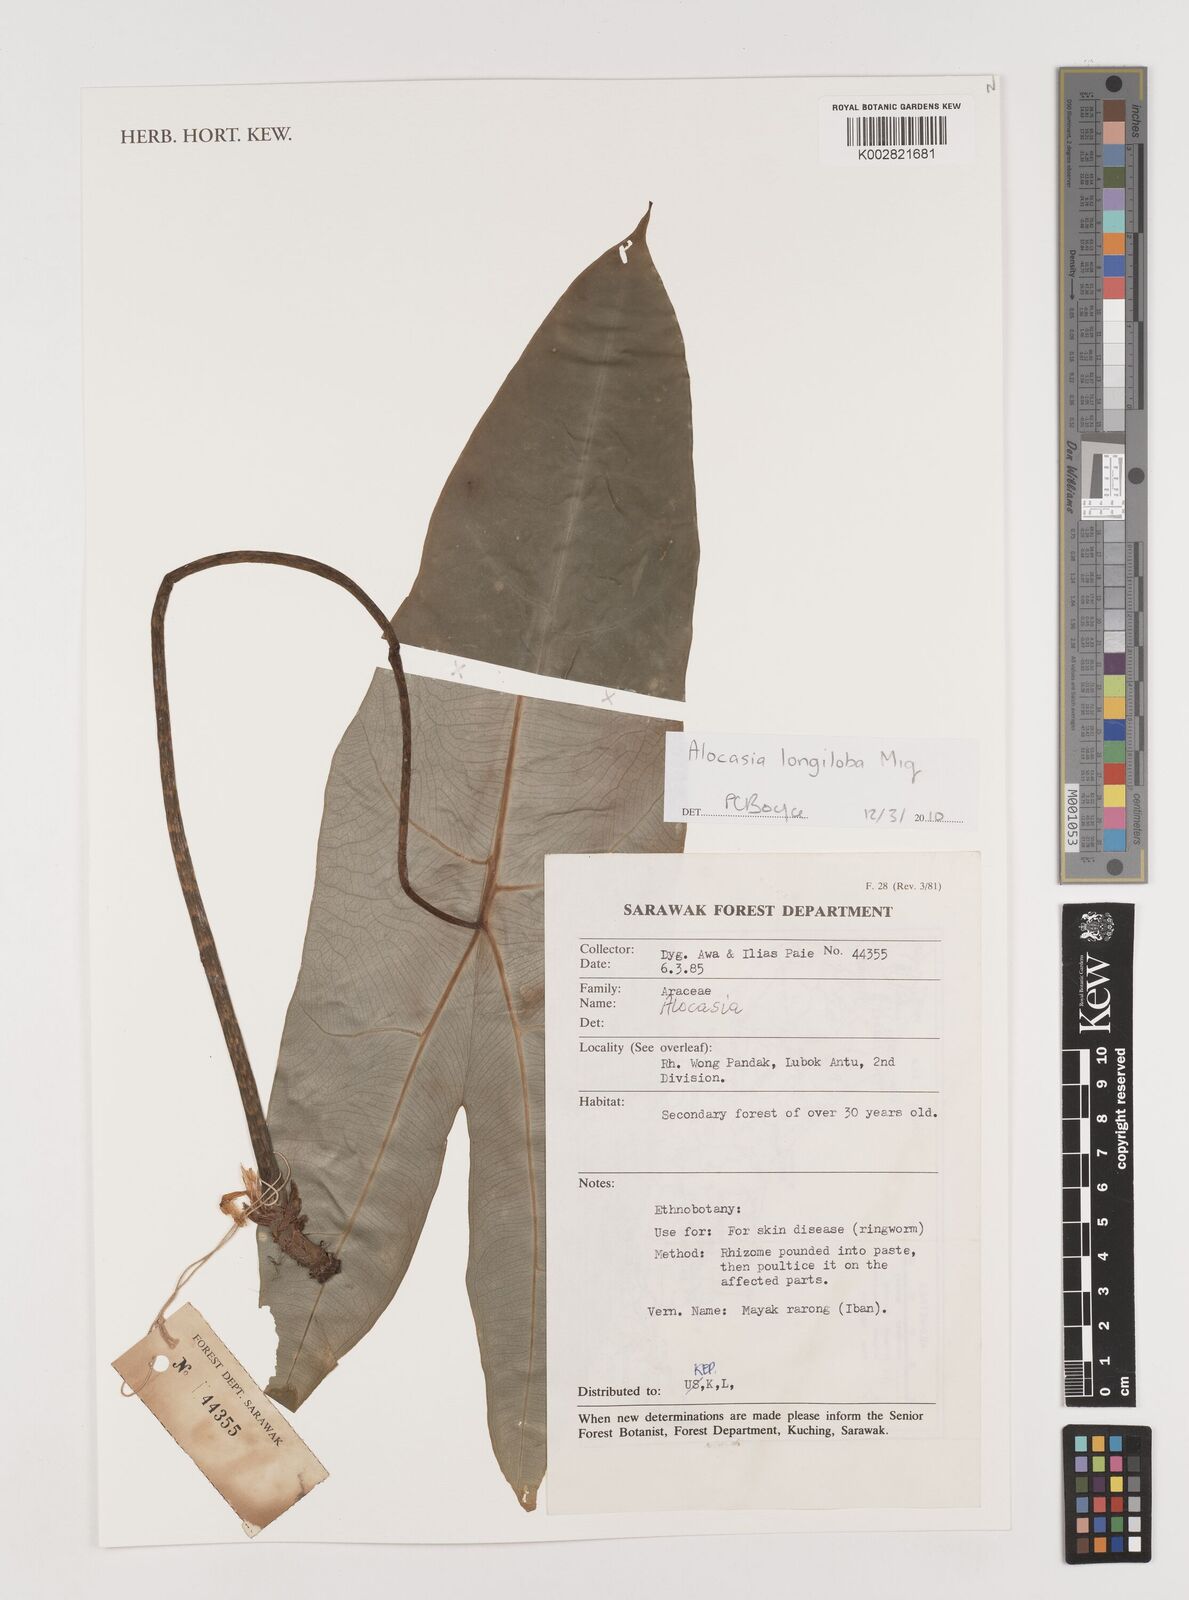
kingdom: Plantae
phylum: Tracheophyta
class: Liliopsida
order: Alismatales
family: Araceae
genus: Alocasia
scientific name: Alocasia longiloba
